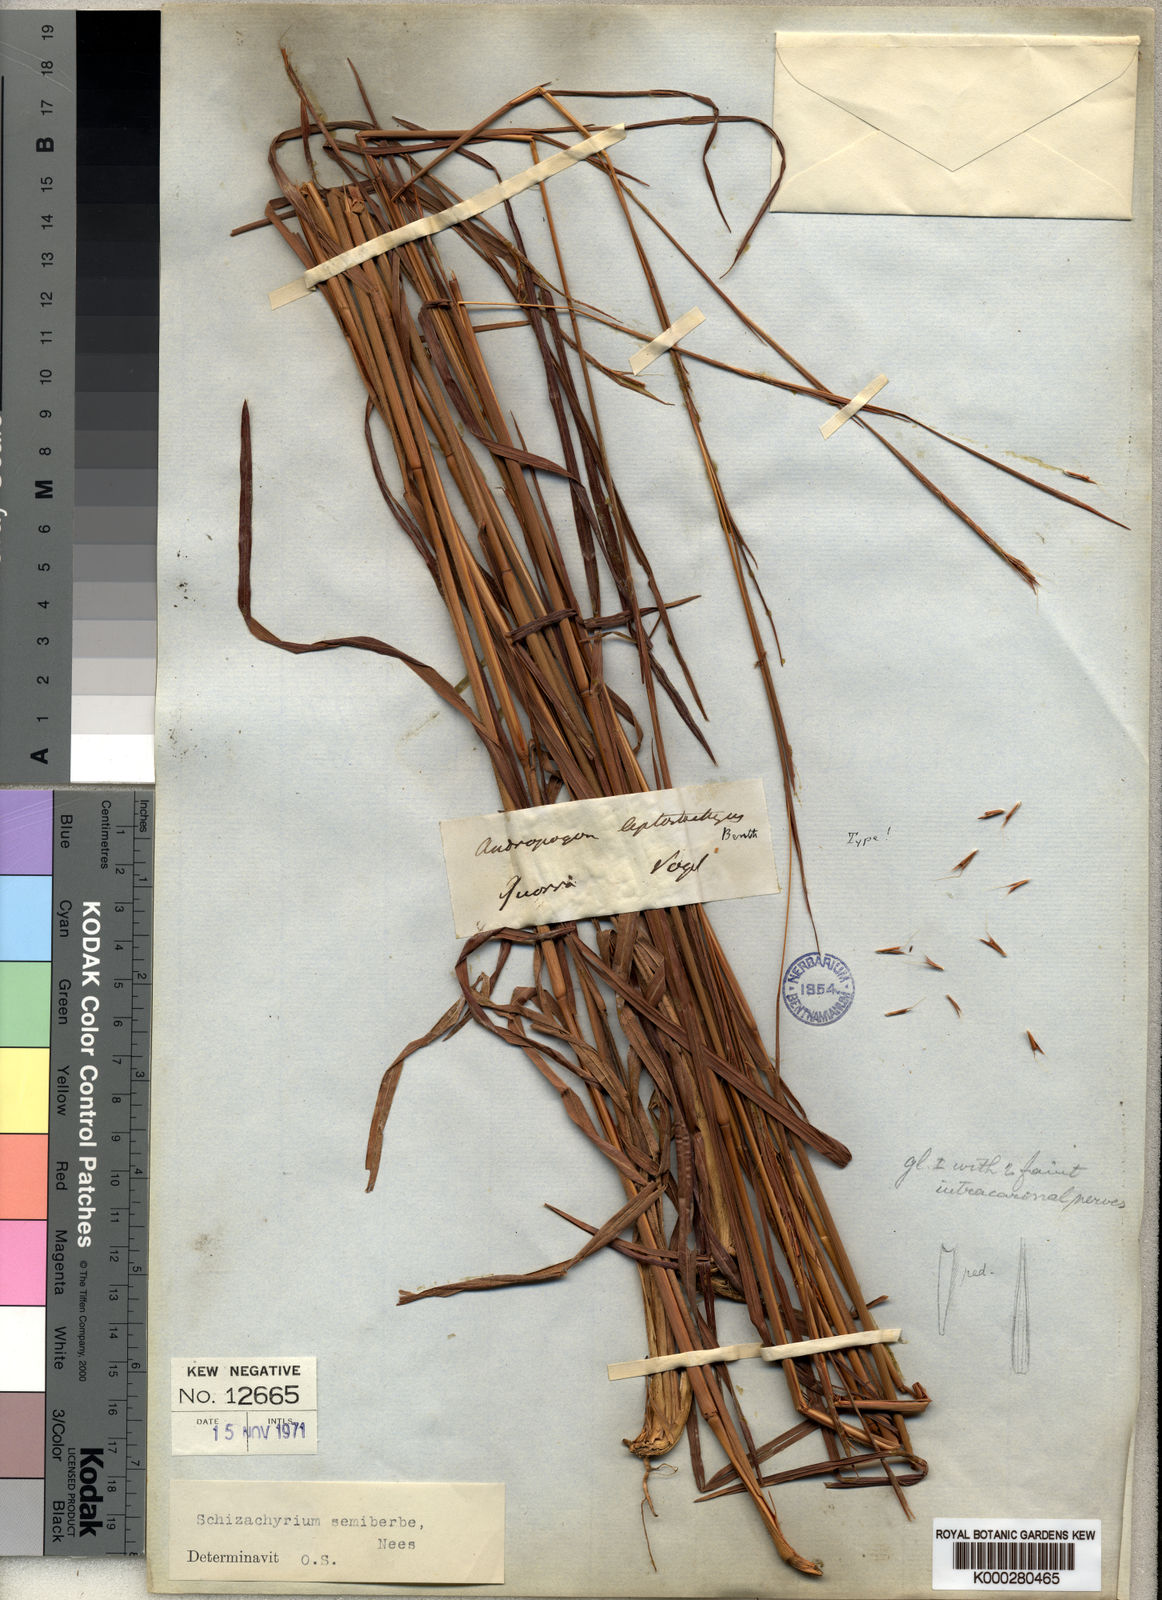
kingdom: Plantae
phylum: Tracheophyta
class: Liliopsida
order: Poales
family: Poaceae
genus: Schizachyrium
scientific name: Schizachyrium sanguineum
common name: Crimson bluestem
